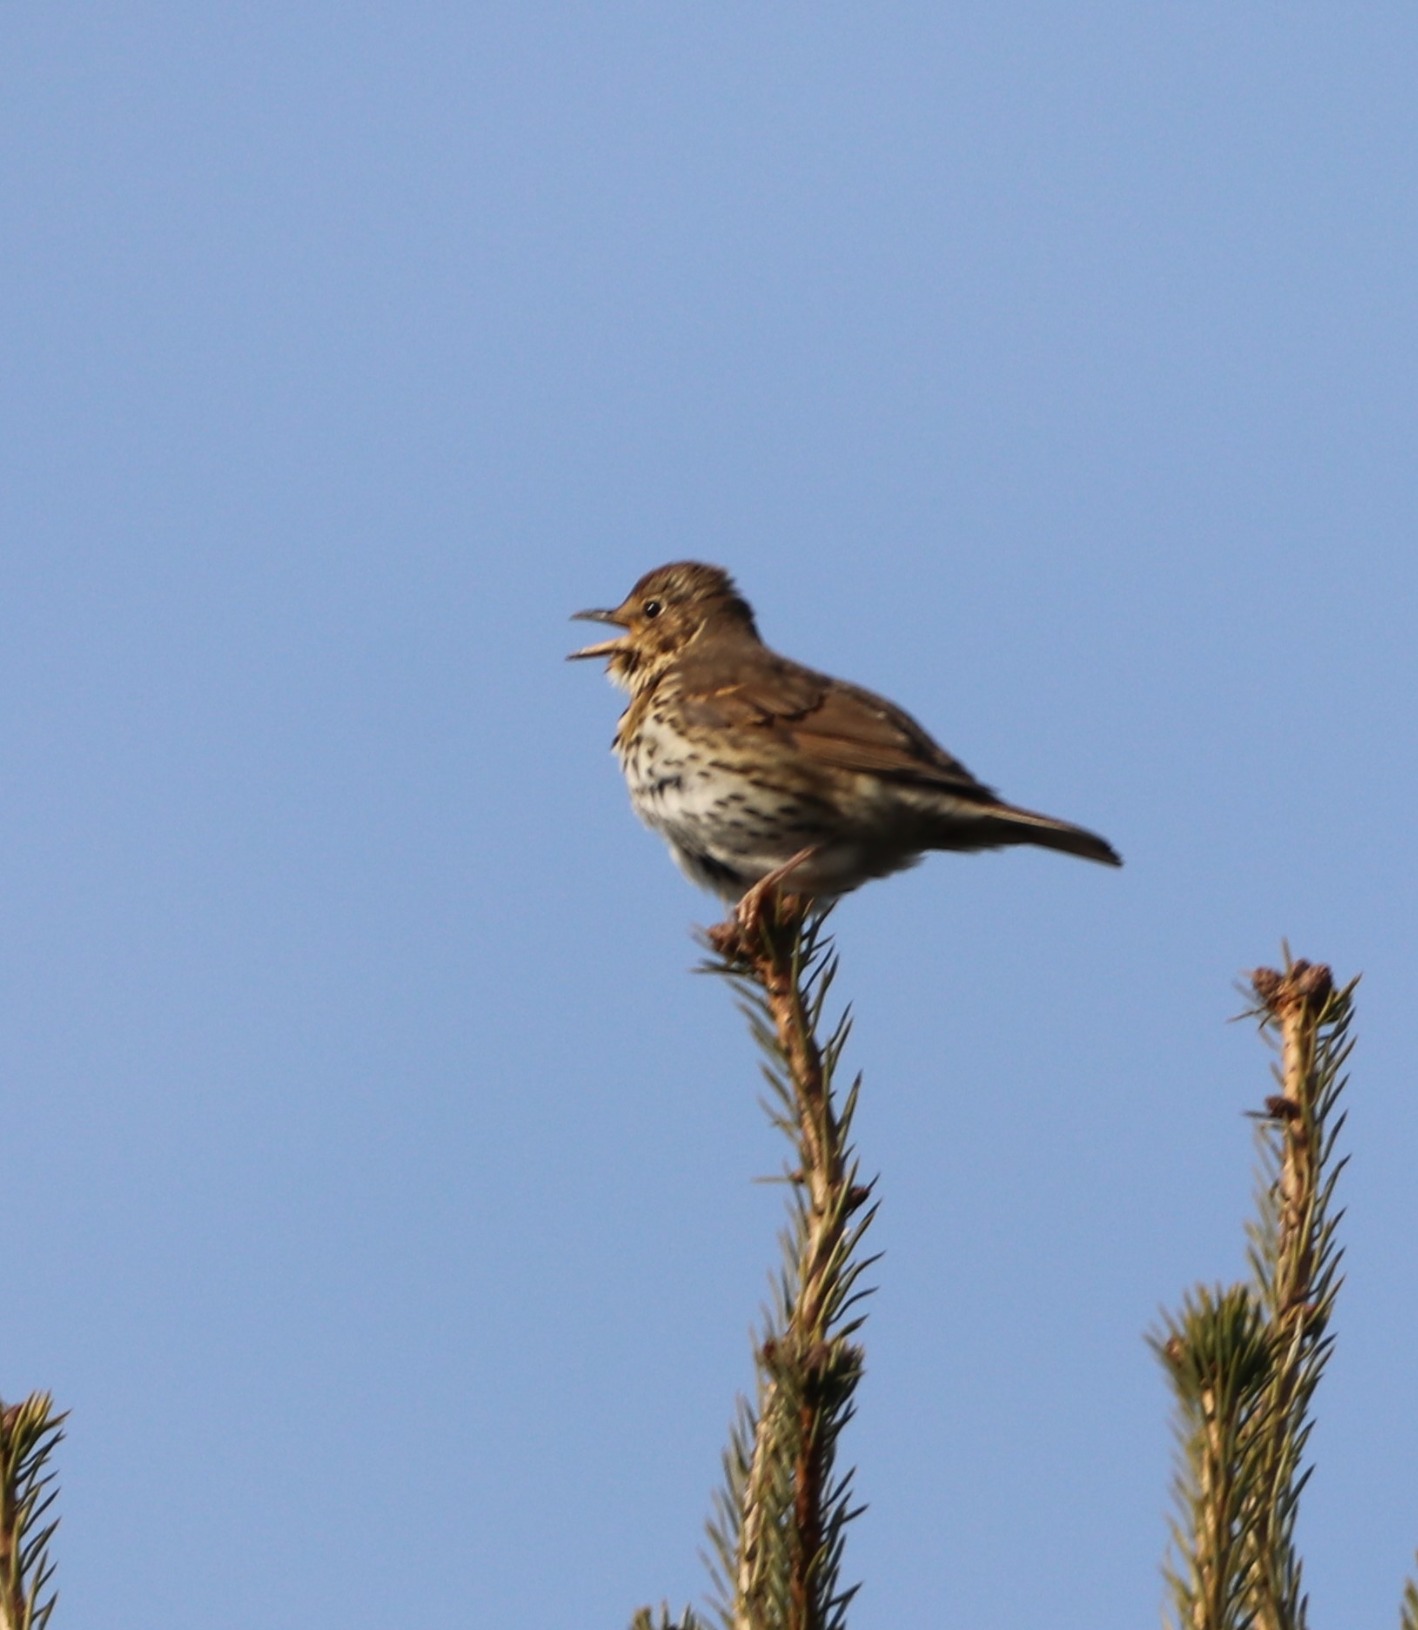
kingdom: Animalia
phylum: Chordata
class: Aves
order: Passeriformes
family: Turdidae
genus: Turdus
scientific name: Turdus philomelos
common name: Sangdrossel
